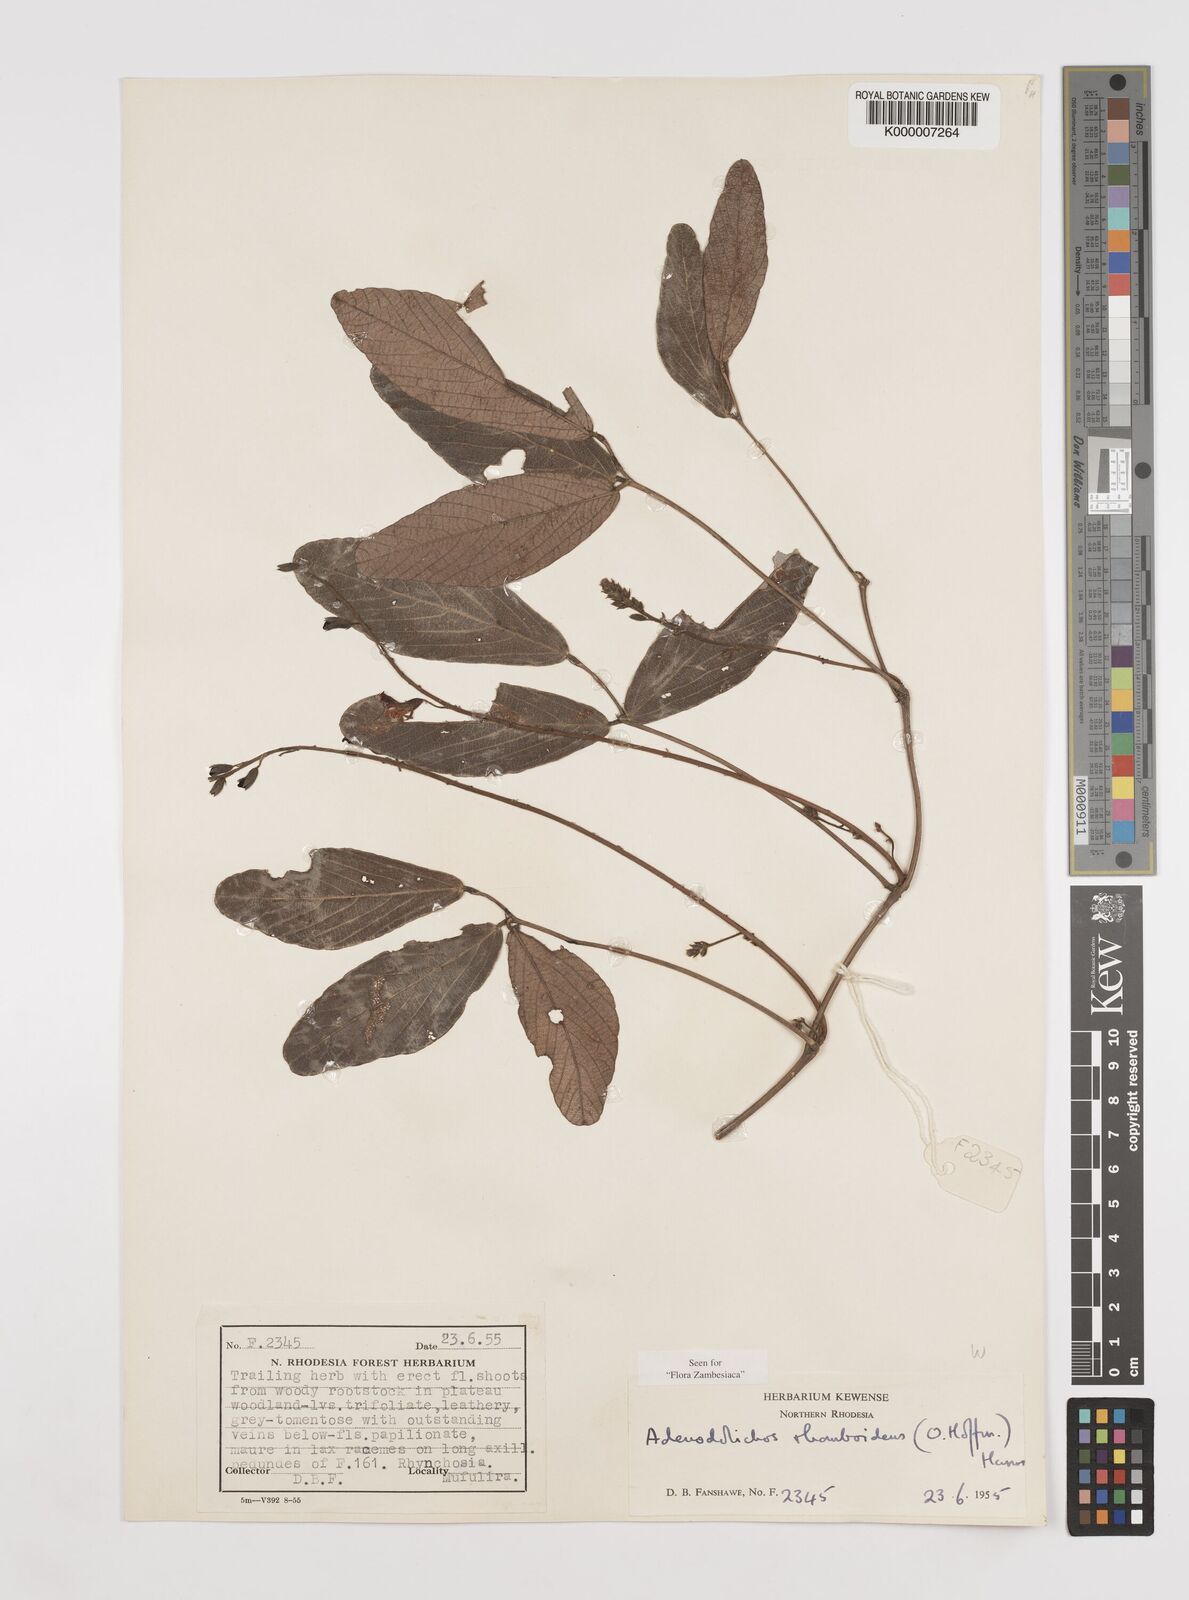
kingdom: Plantae
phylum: Tracheophyta
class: Magnoliopsida
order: Fabales
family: Fabaceae
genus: Adenodolichos
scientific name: Adenodolichos rhomboideus
